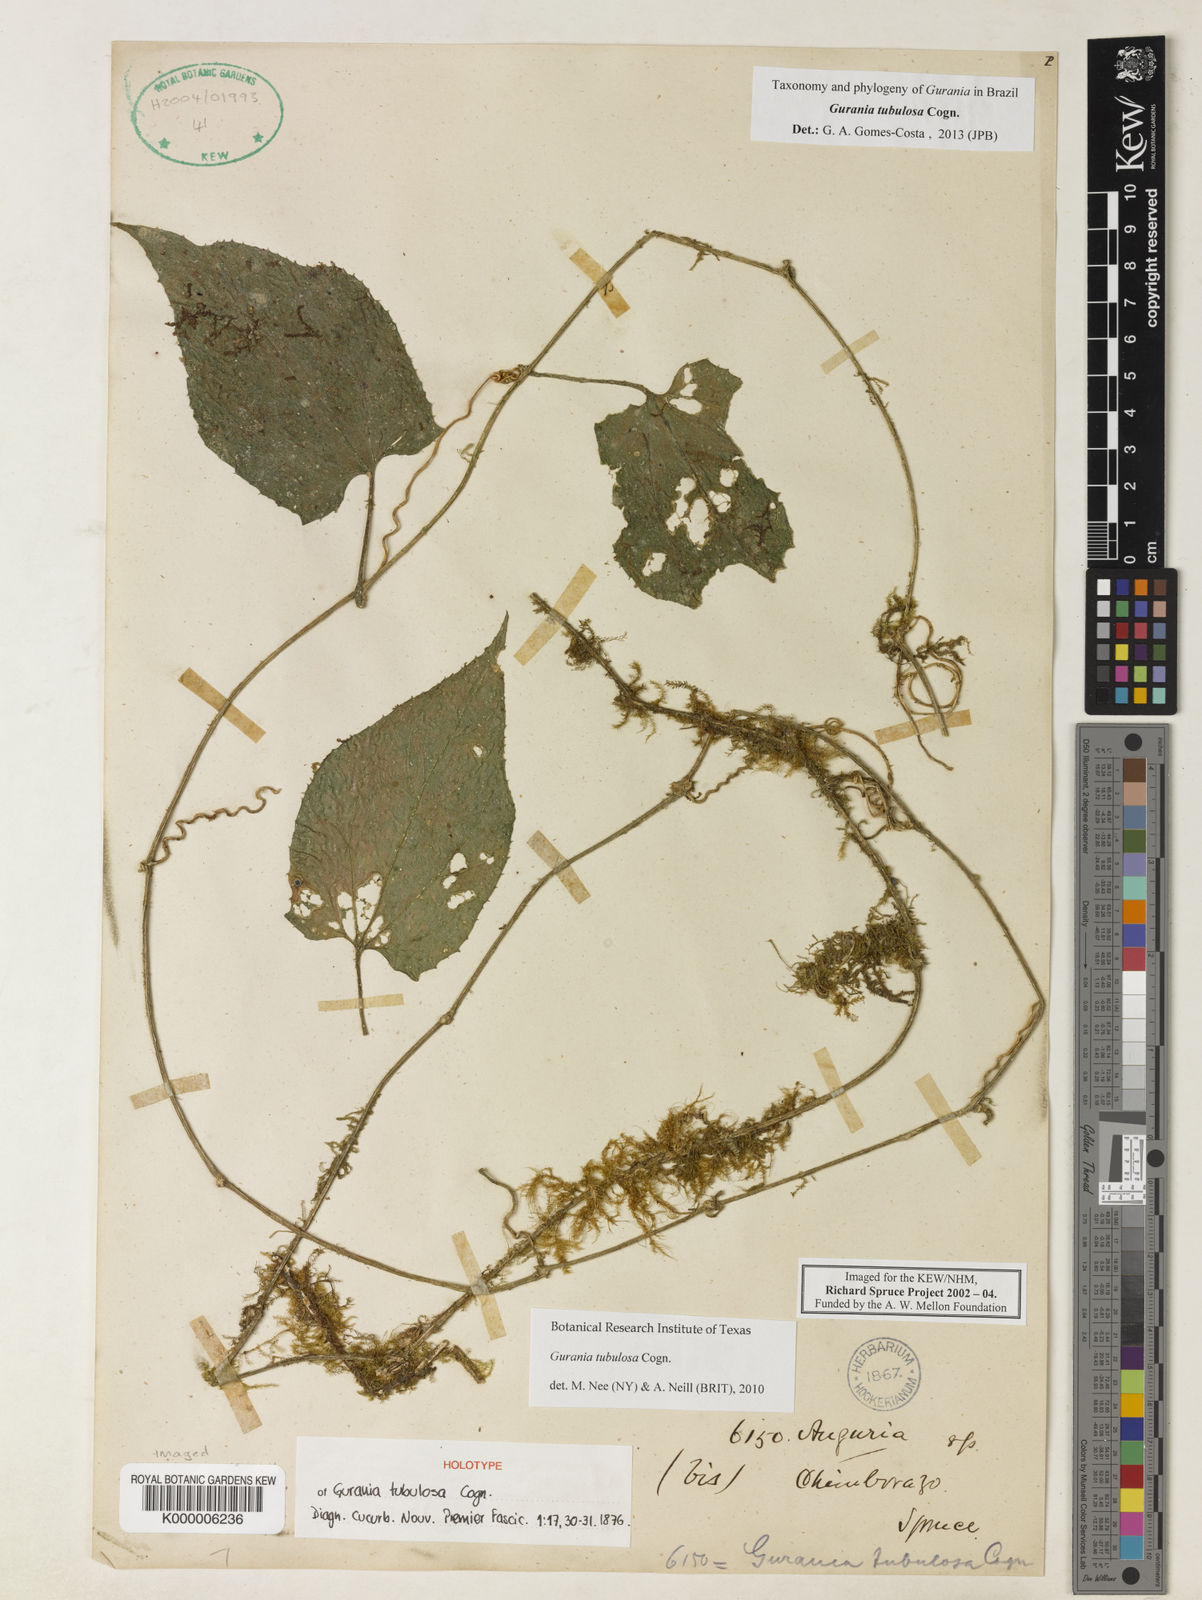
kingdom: Plantae
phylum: Tracheophyta
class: Magnoliopsida
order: Cucurbitales
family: Cucurbitaceae
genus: Gurania
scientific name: Gurania tubulosa
